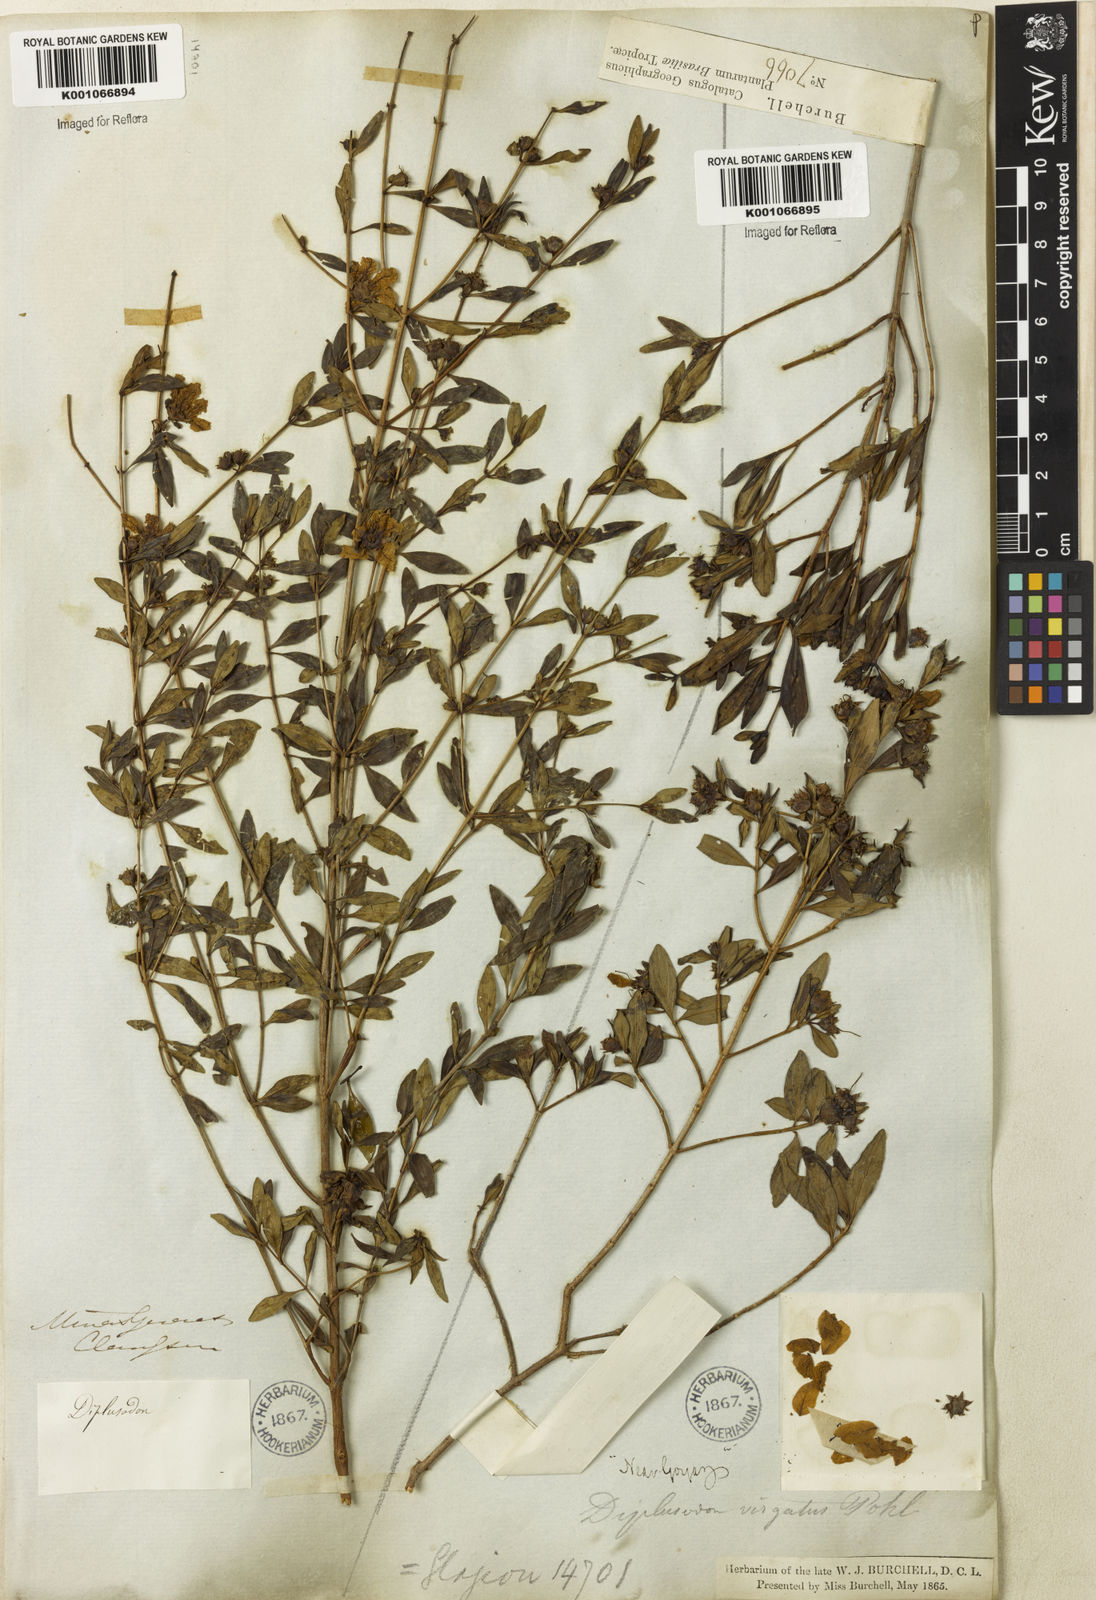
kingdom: Plantae
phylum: Tracheophyta
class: Magnoliopsida
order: Myrtales
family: Lythraceae
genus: Diplusodon
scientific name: Diplusodon virgatus
